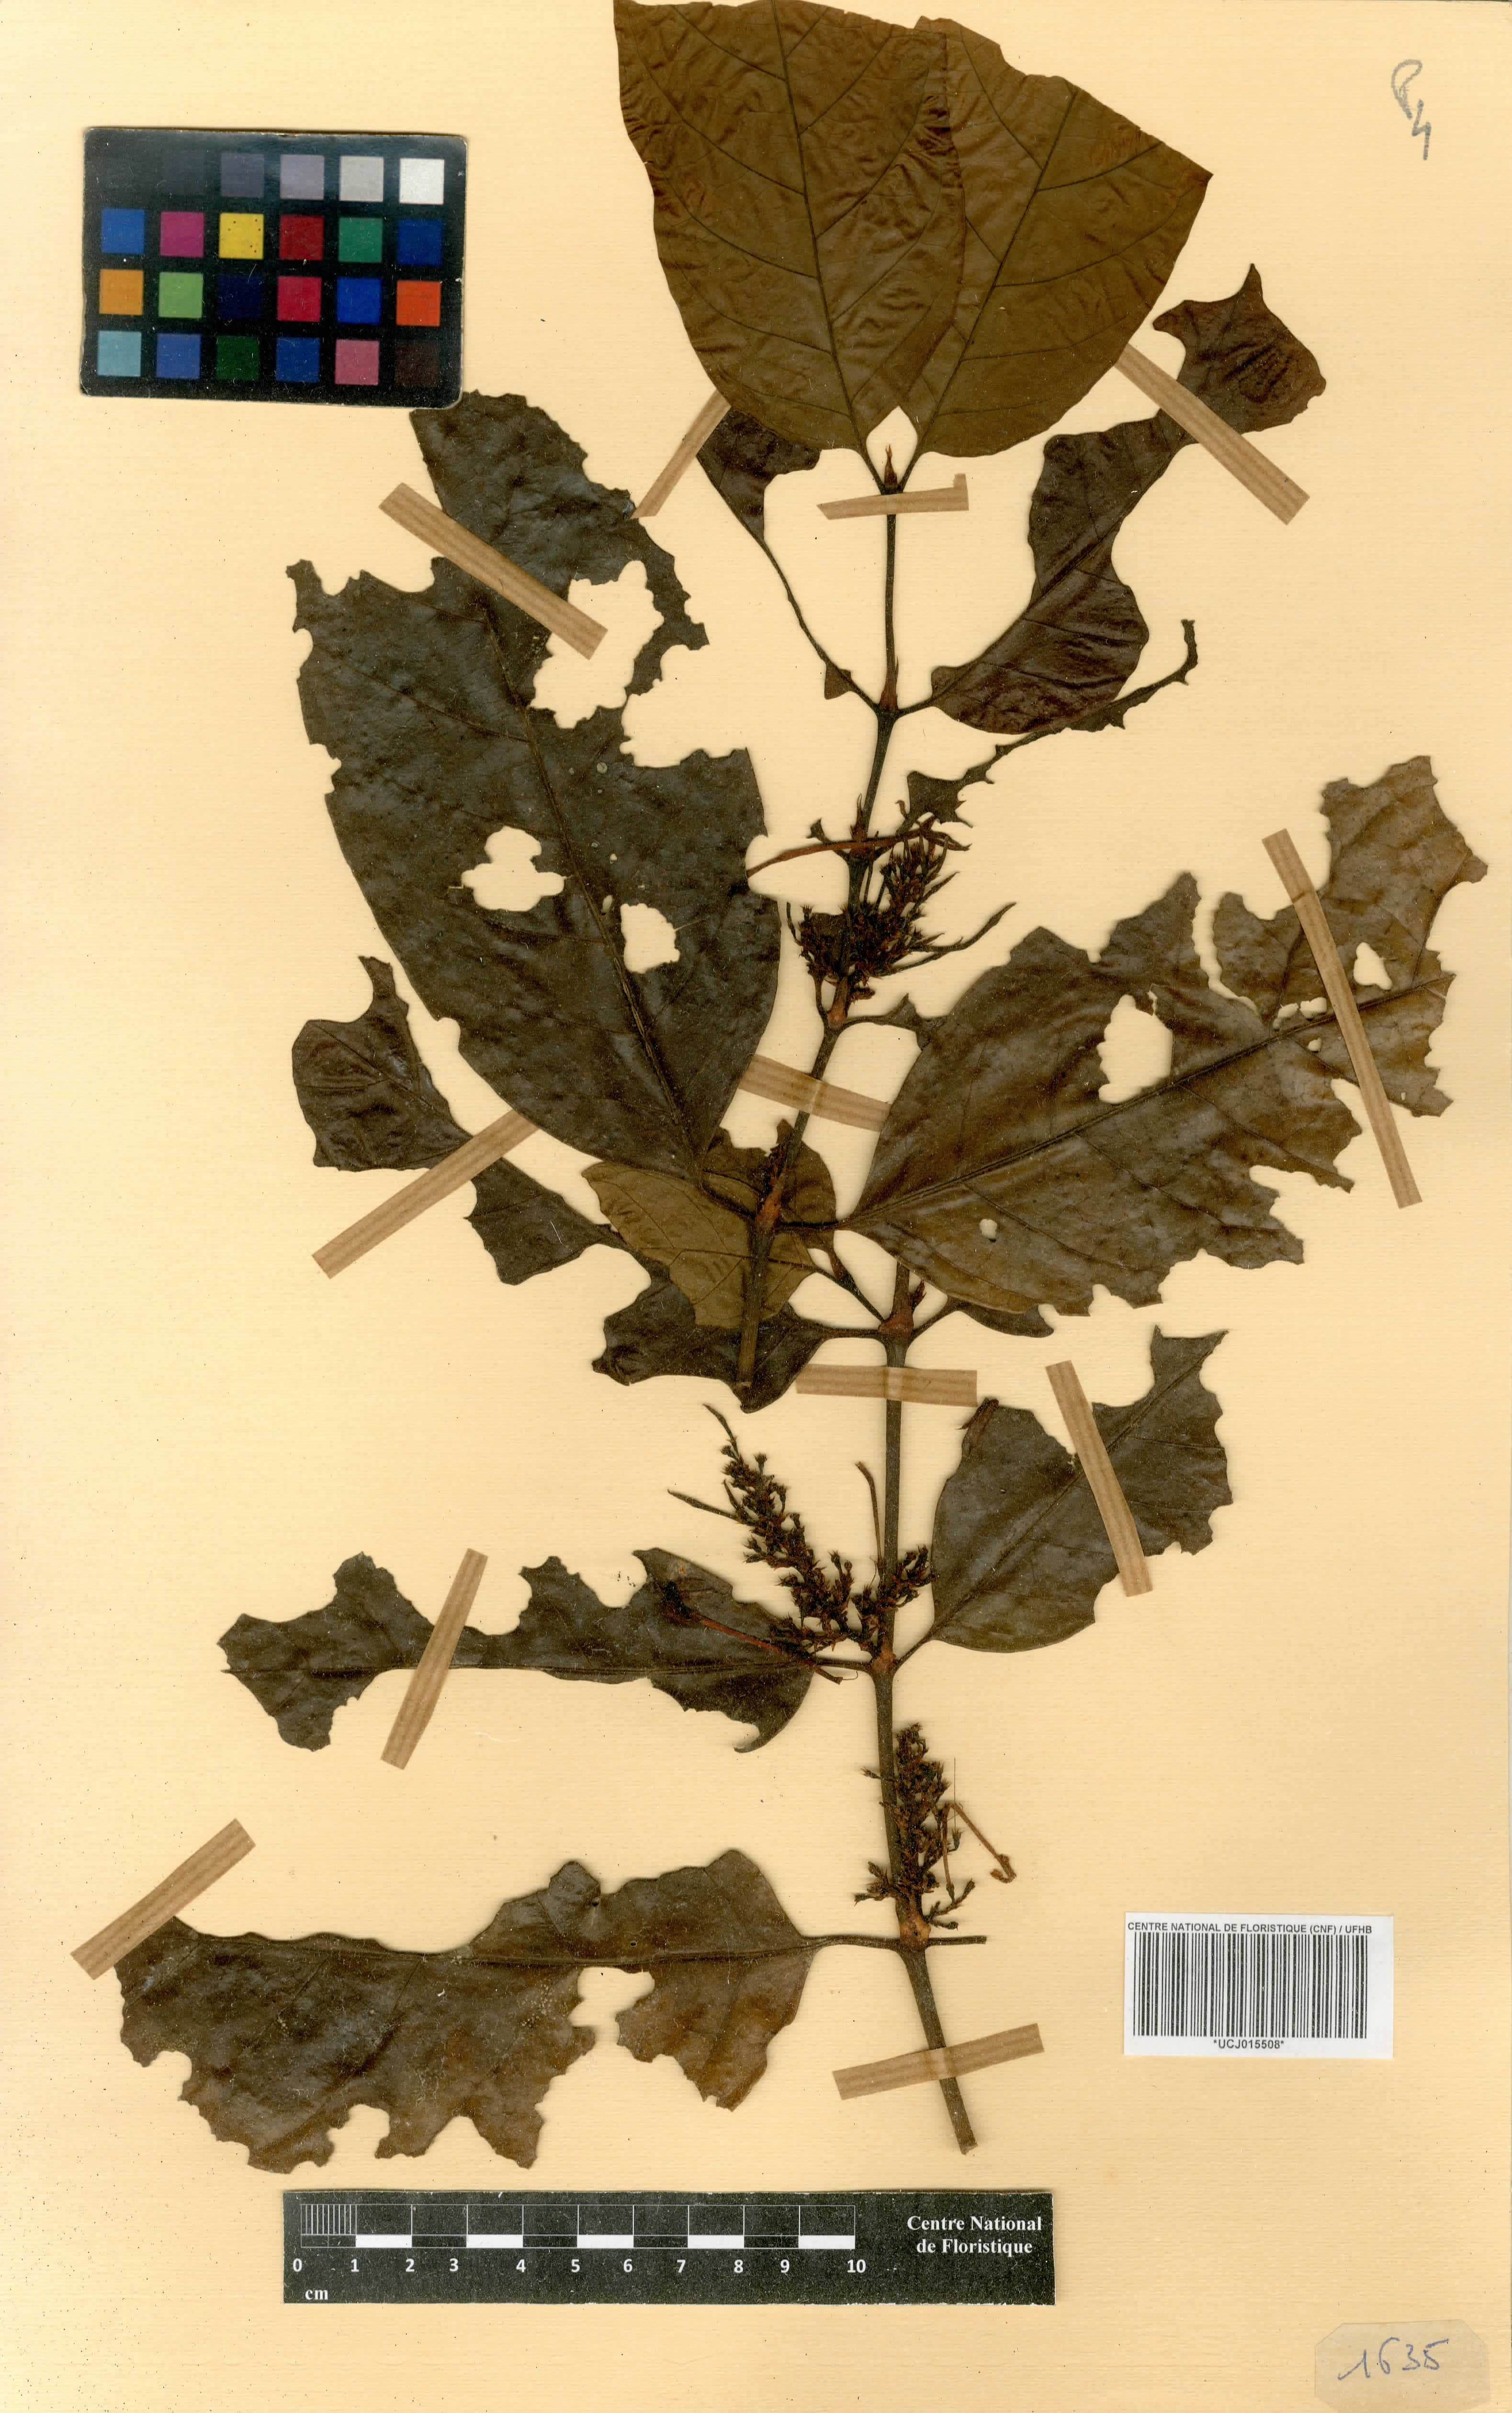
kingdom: Plantae
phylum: Tracheophyta
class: Magnoliopsida
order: Gentianales
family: Rubiaceae
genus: Oxyanthus
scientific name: Oxyanthus speciosus
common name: Whipstick loquat
